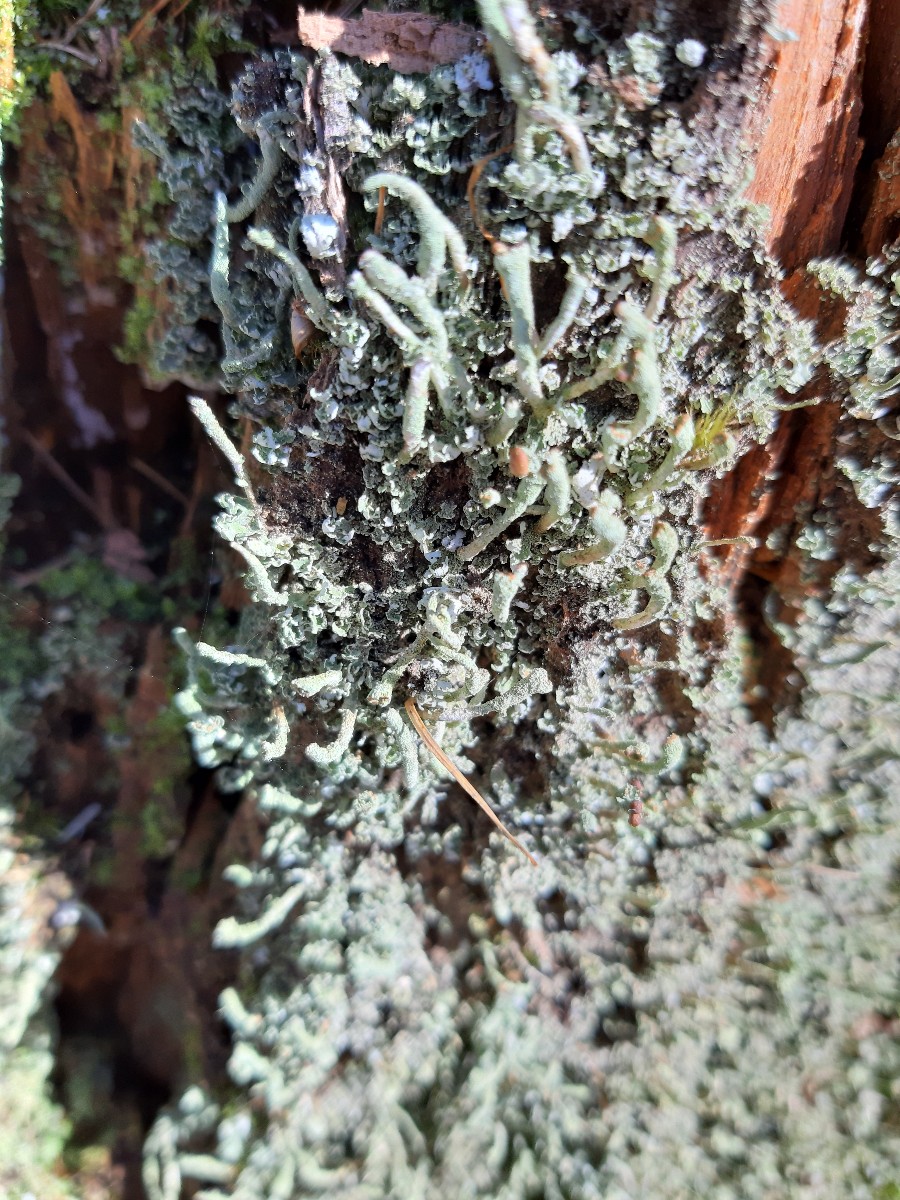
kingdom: Fungi
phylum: Ascomycota
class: Lecanoromycetes
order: Lecanorales
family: Cladoniaceae
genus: Cladonia
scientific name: Cladonia coniocraea
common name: træfods-bægerlav
